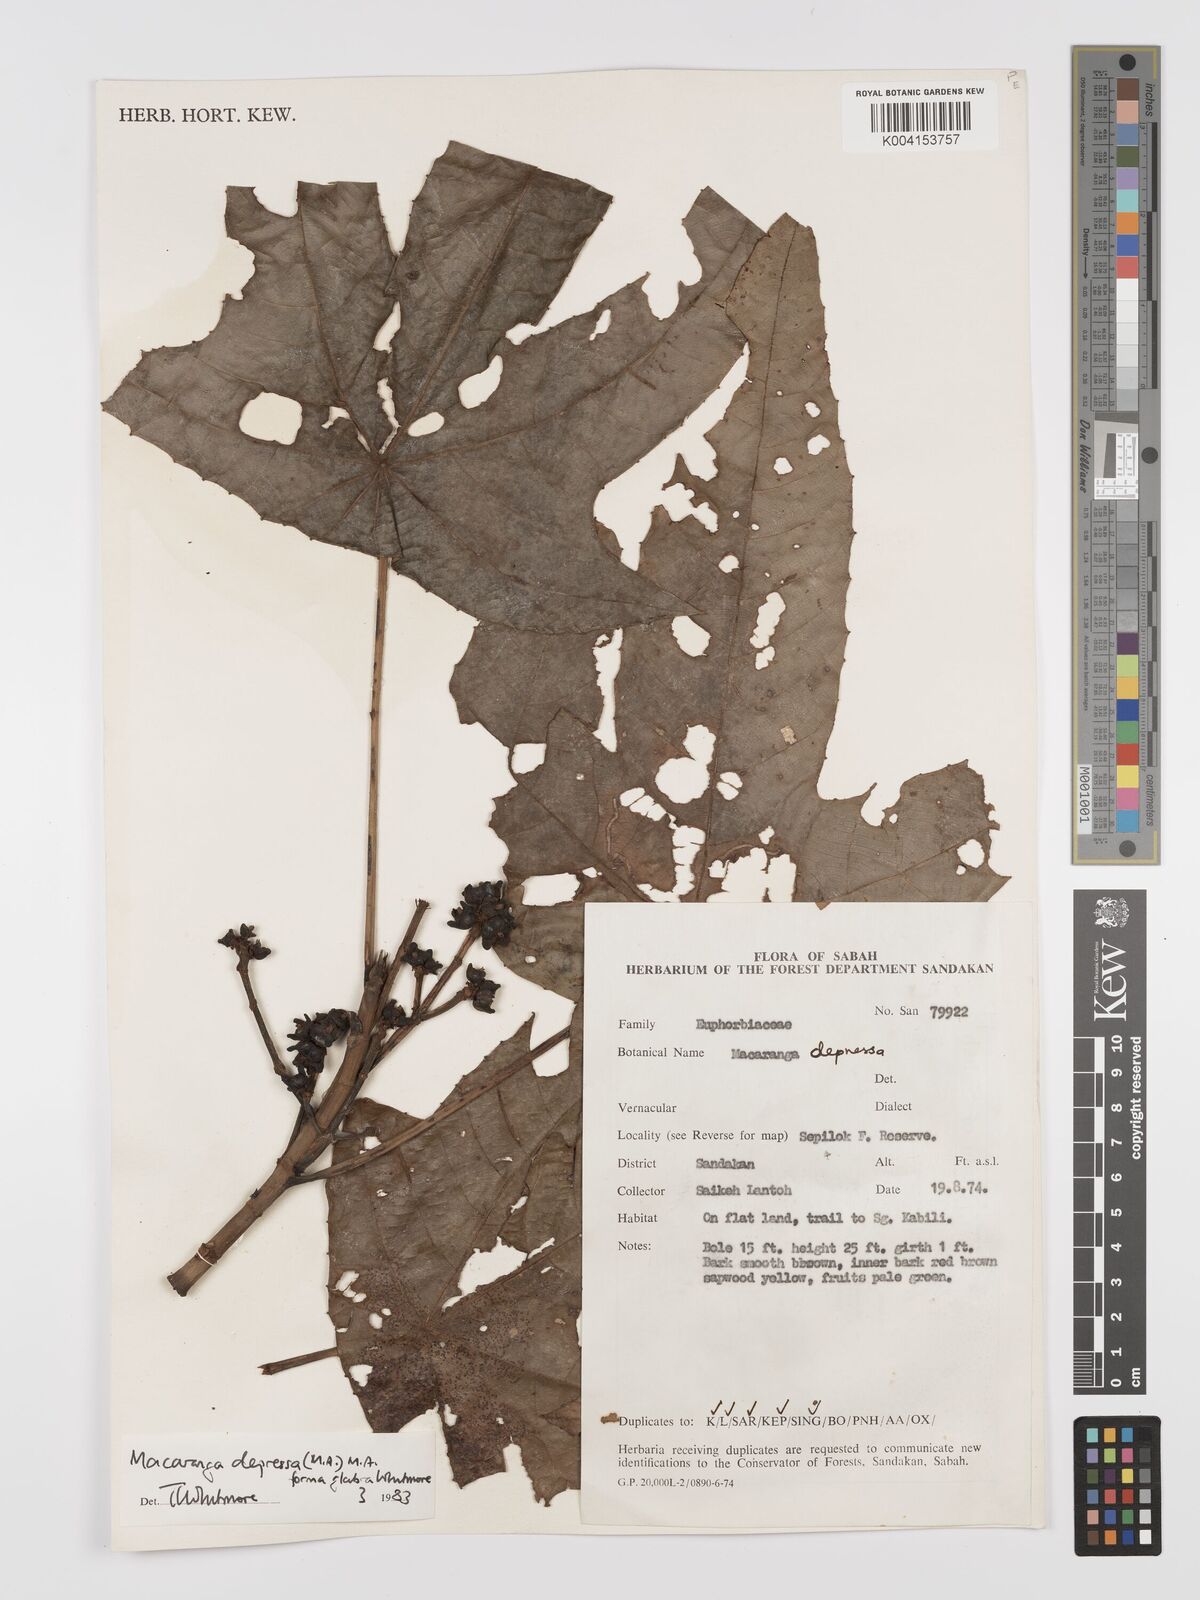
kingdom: Plantae
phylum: Tracheophyta
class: Magnoliopsida
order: Malpighiales
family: Euphorbiaceae
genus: Macaranga
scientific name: Macaranga depressa
